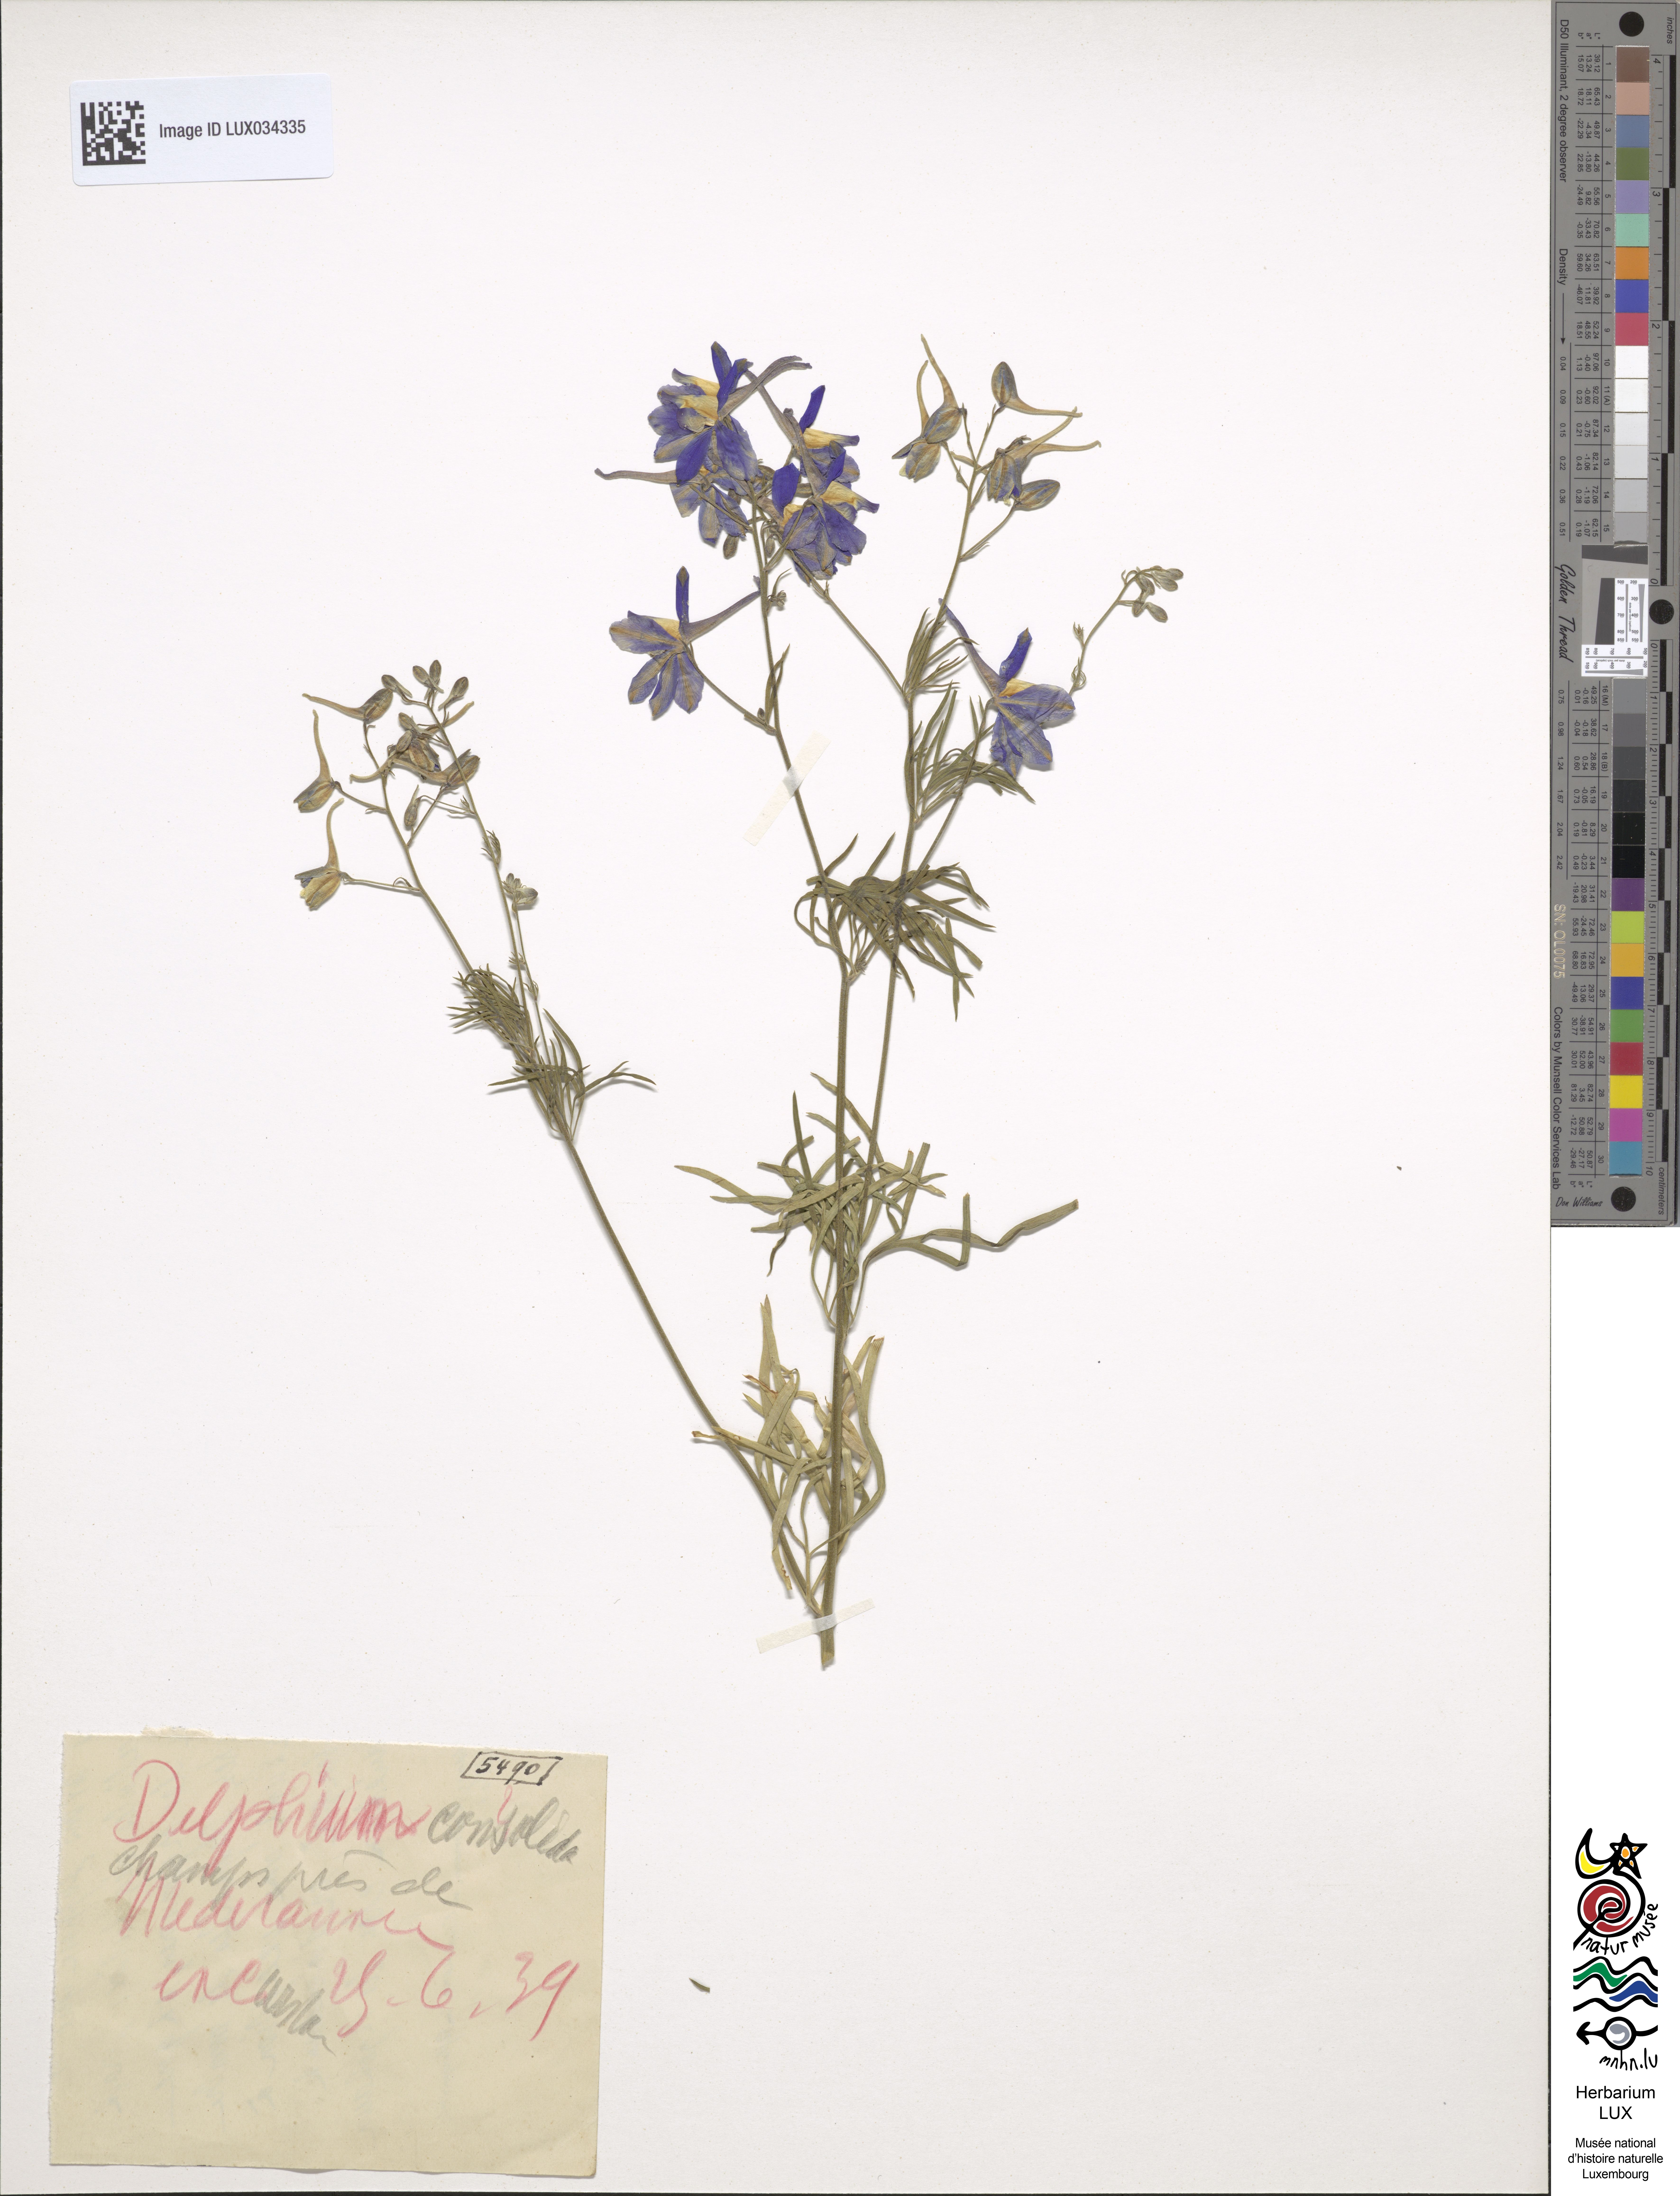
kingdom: Plantae
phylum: Tracheophyta
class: Magnoliopsida
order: Ranunculales
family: Ranunculaceae
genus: Delphinium
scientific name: Delphinium consolida
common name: Branching larkspur
